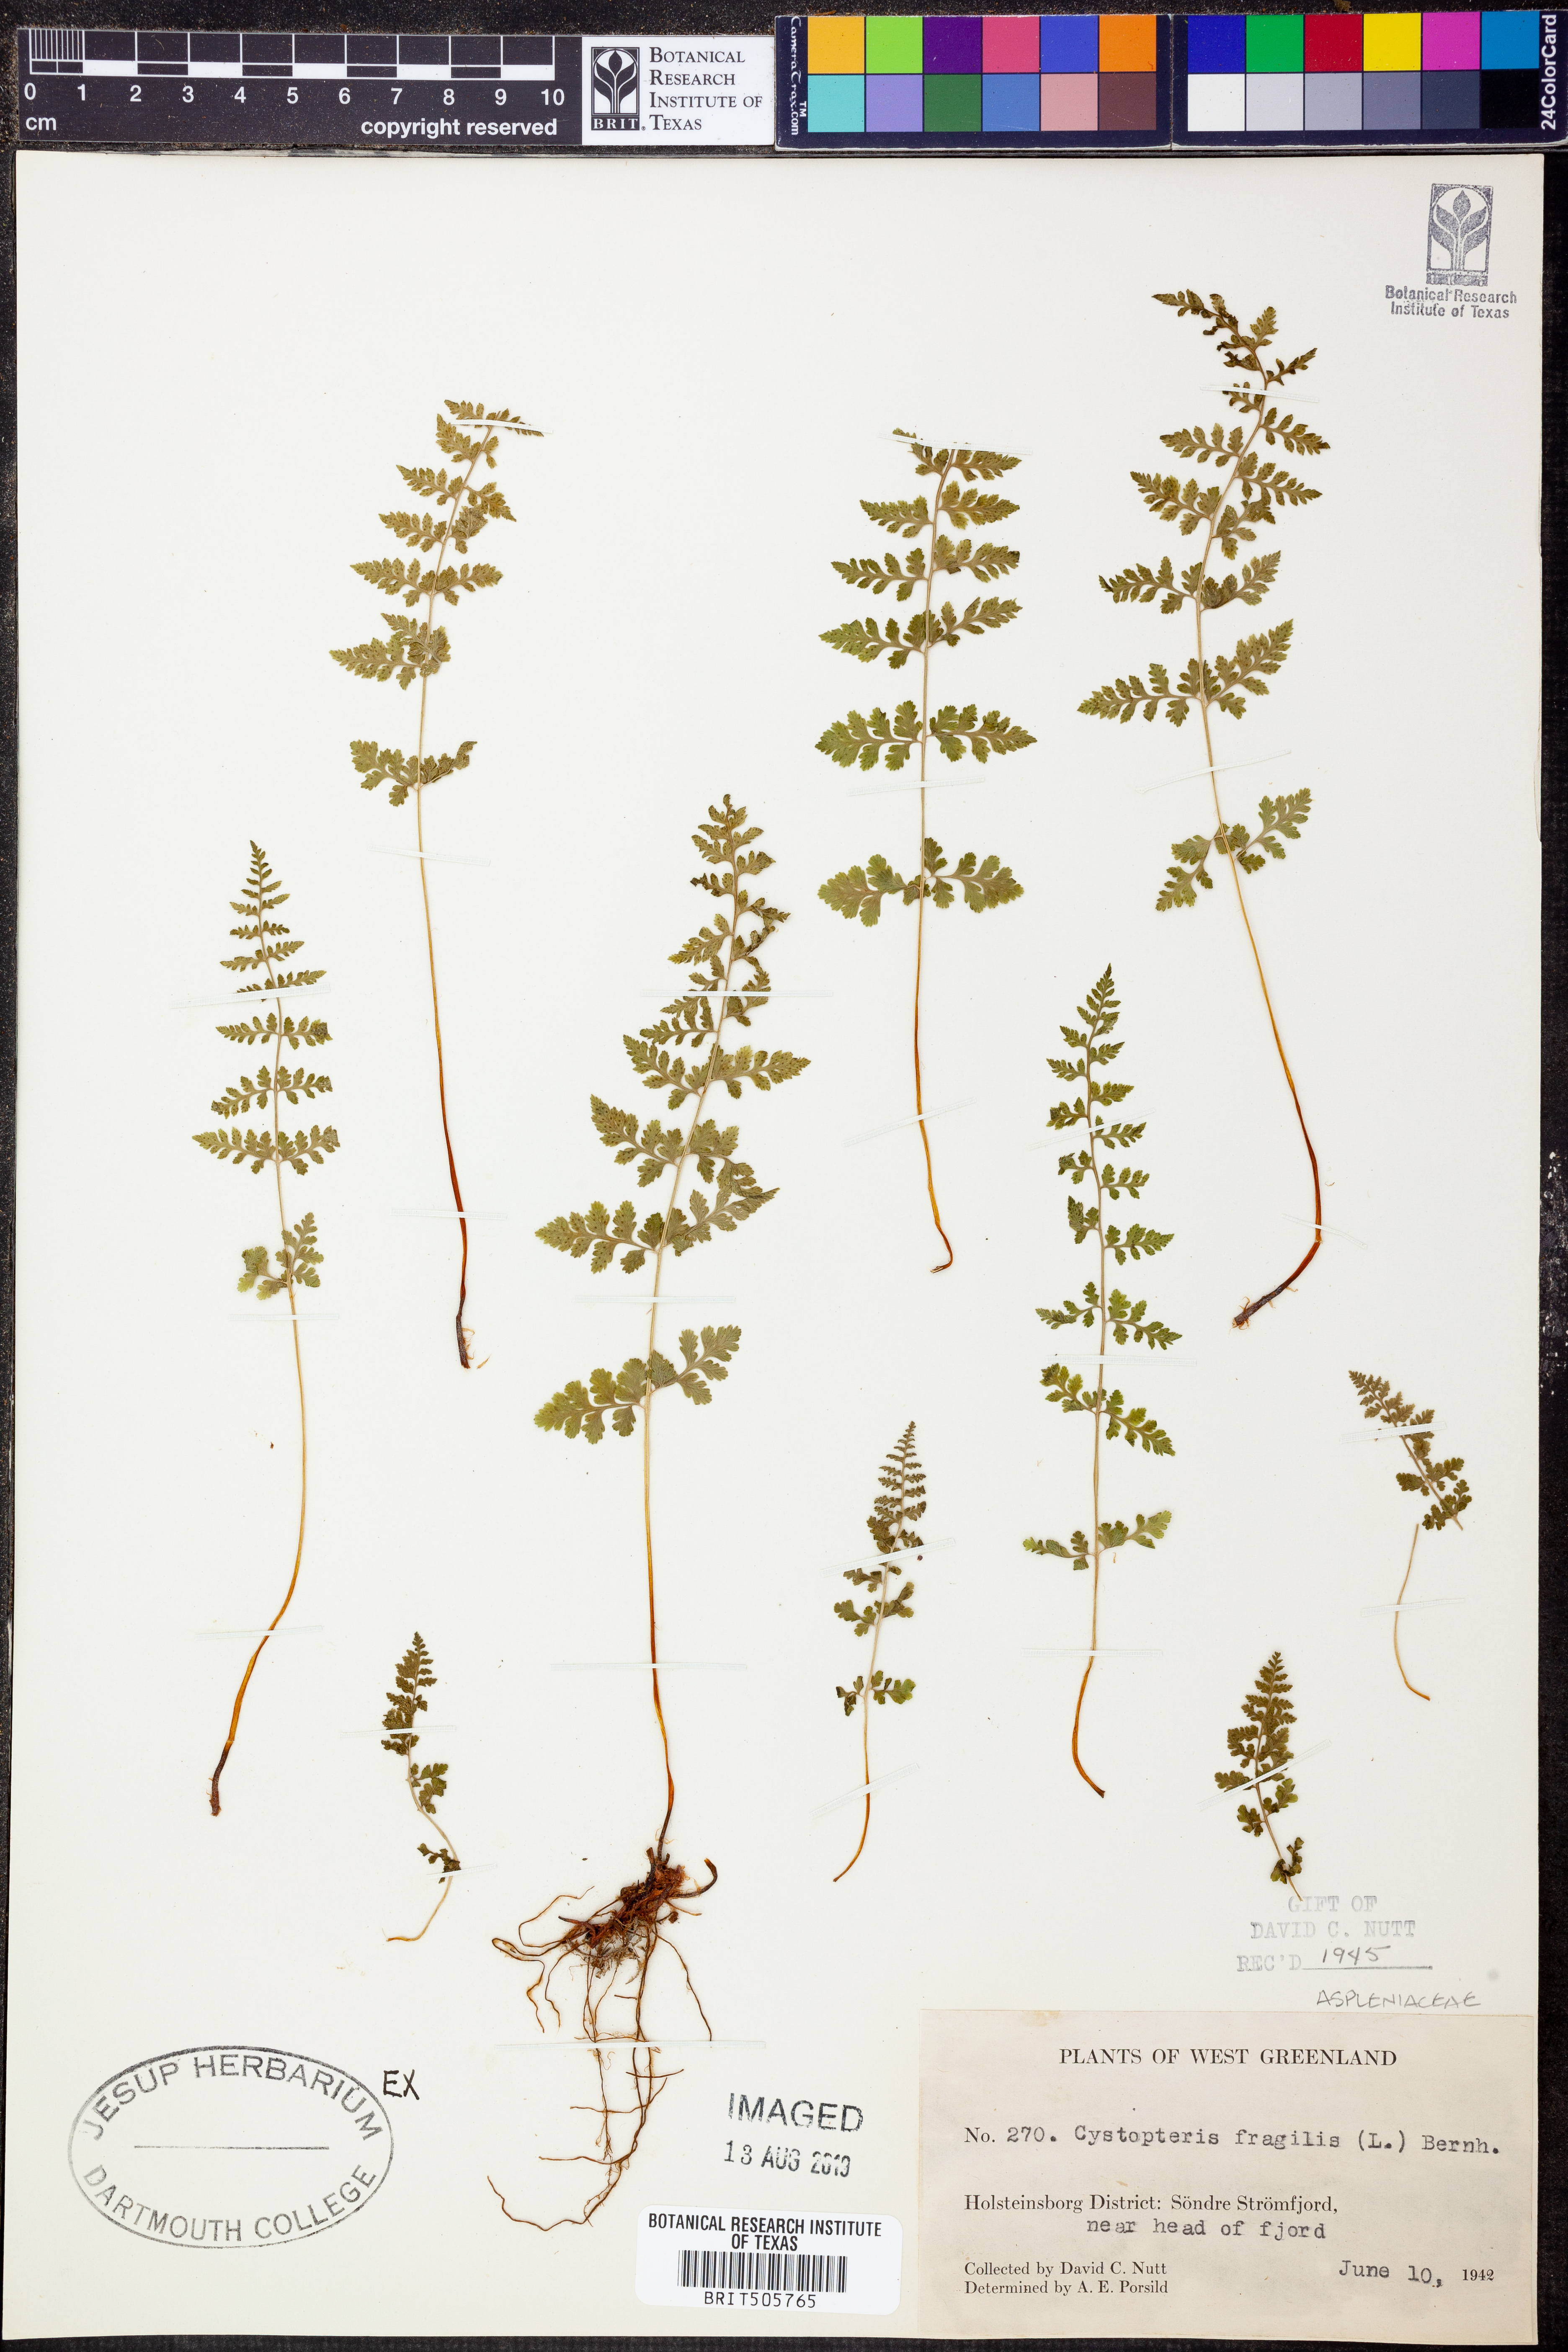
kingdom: Plantae
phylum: Tracheophyta
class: Polypodiopsida
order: Polypodiales
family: Cystopteridaceae
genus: Cystopteris
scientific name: Cystopteris fragilis
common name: Brittle bladder fern
